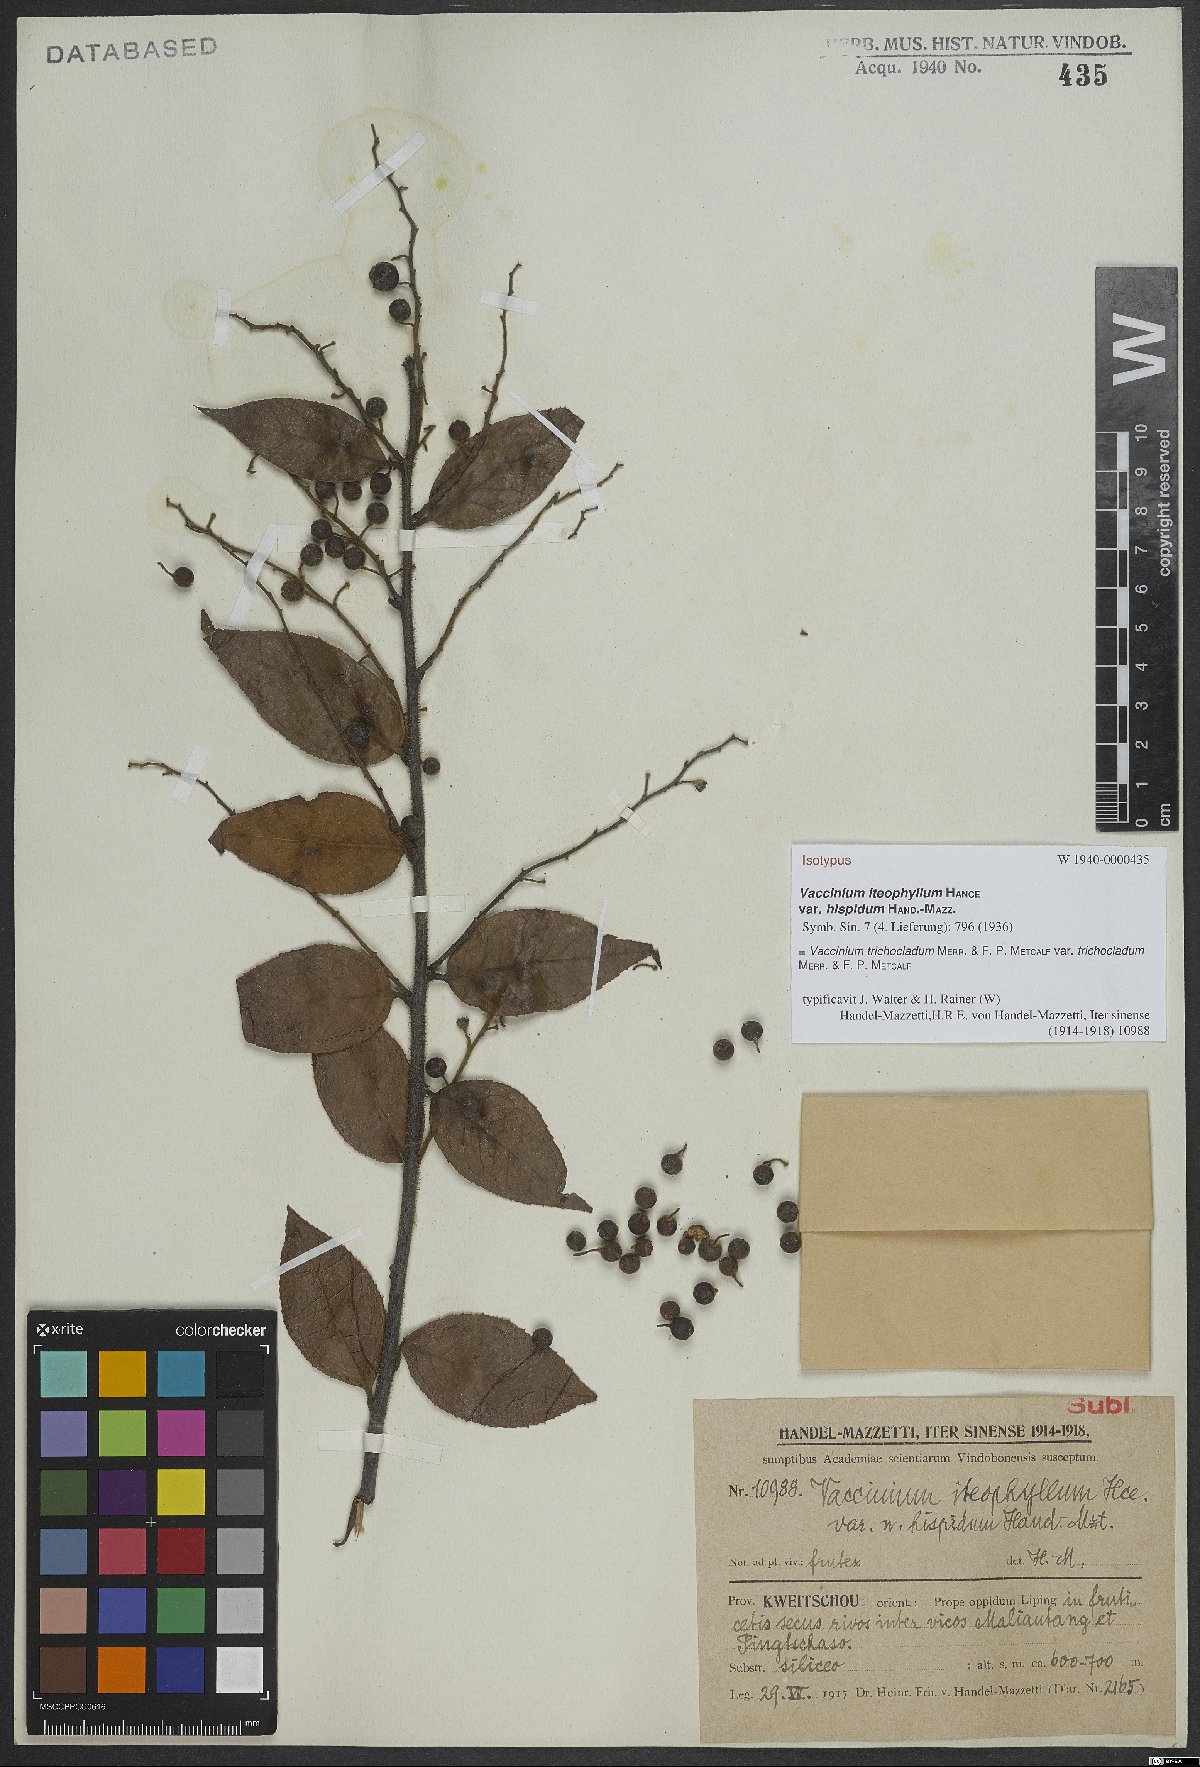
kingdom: Plantae
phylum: Tracheophyta
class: Magnoliopsida
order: Ericales
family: Ericaceae
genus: Vaccinium
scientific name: Vaccinium trichocladum
